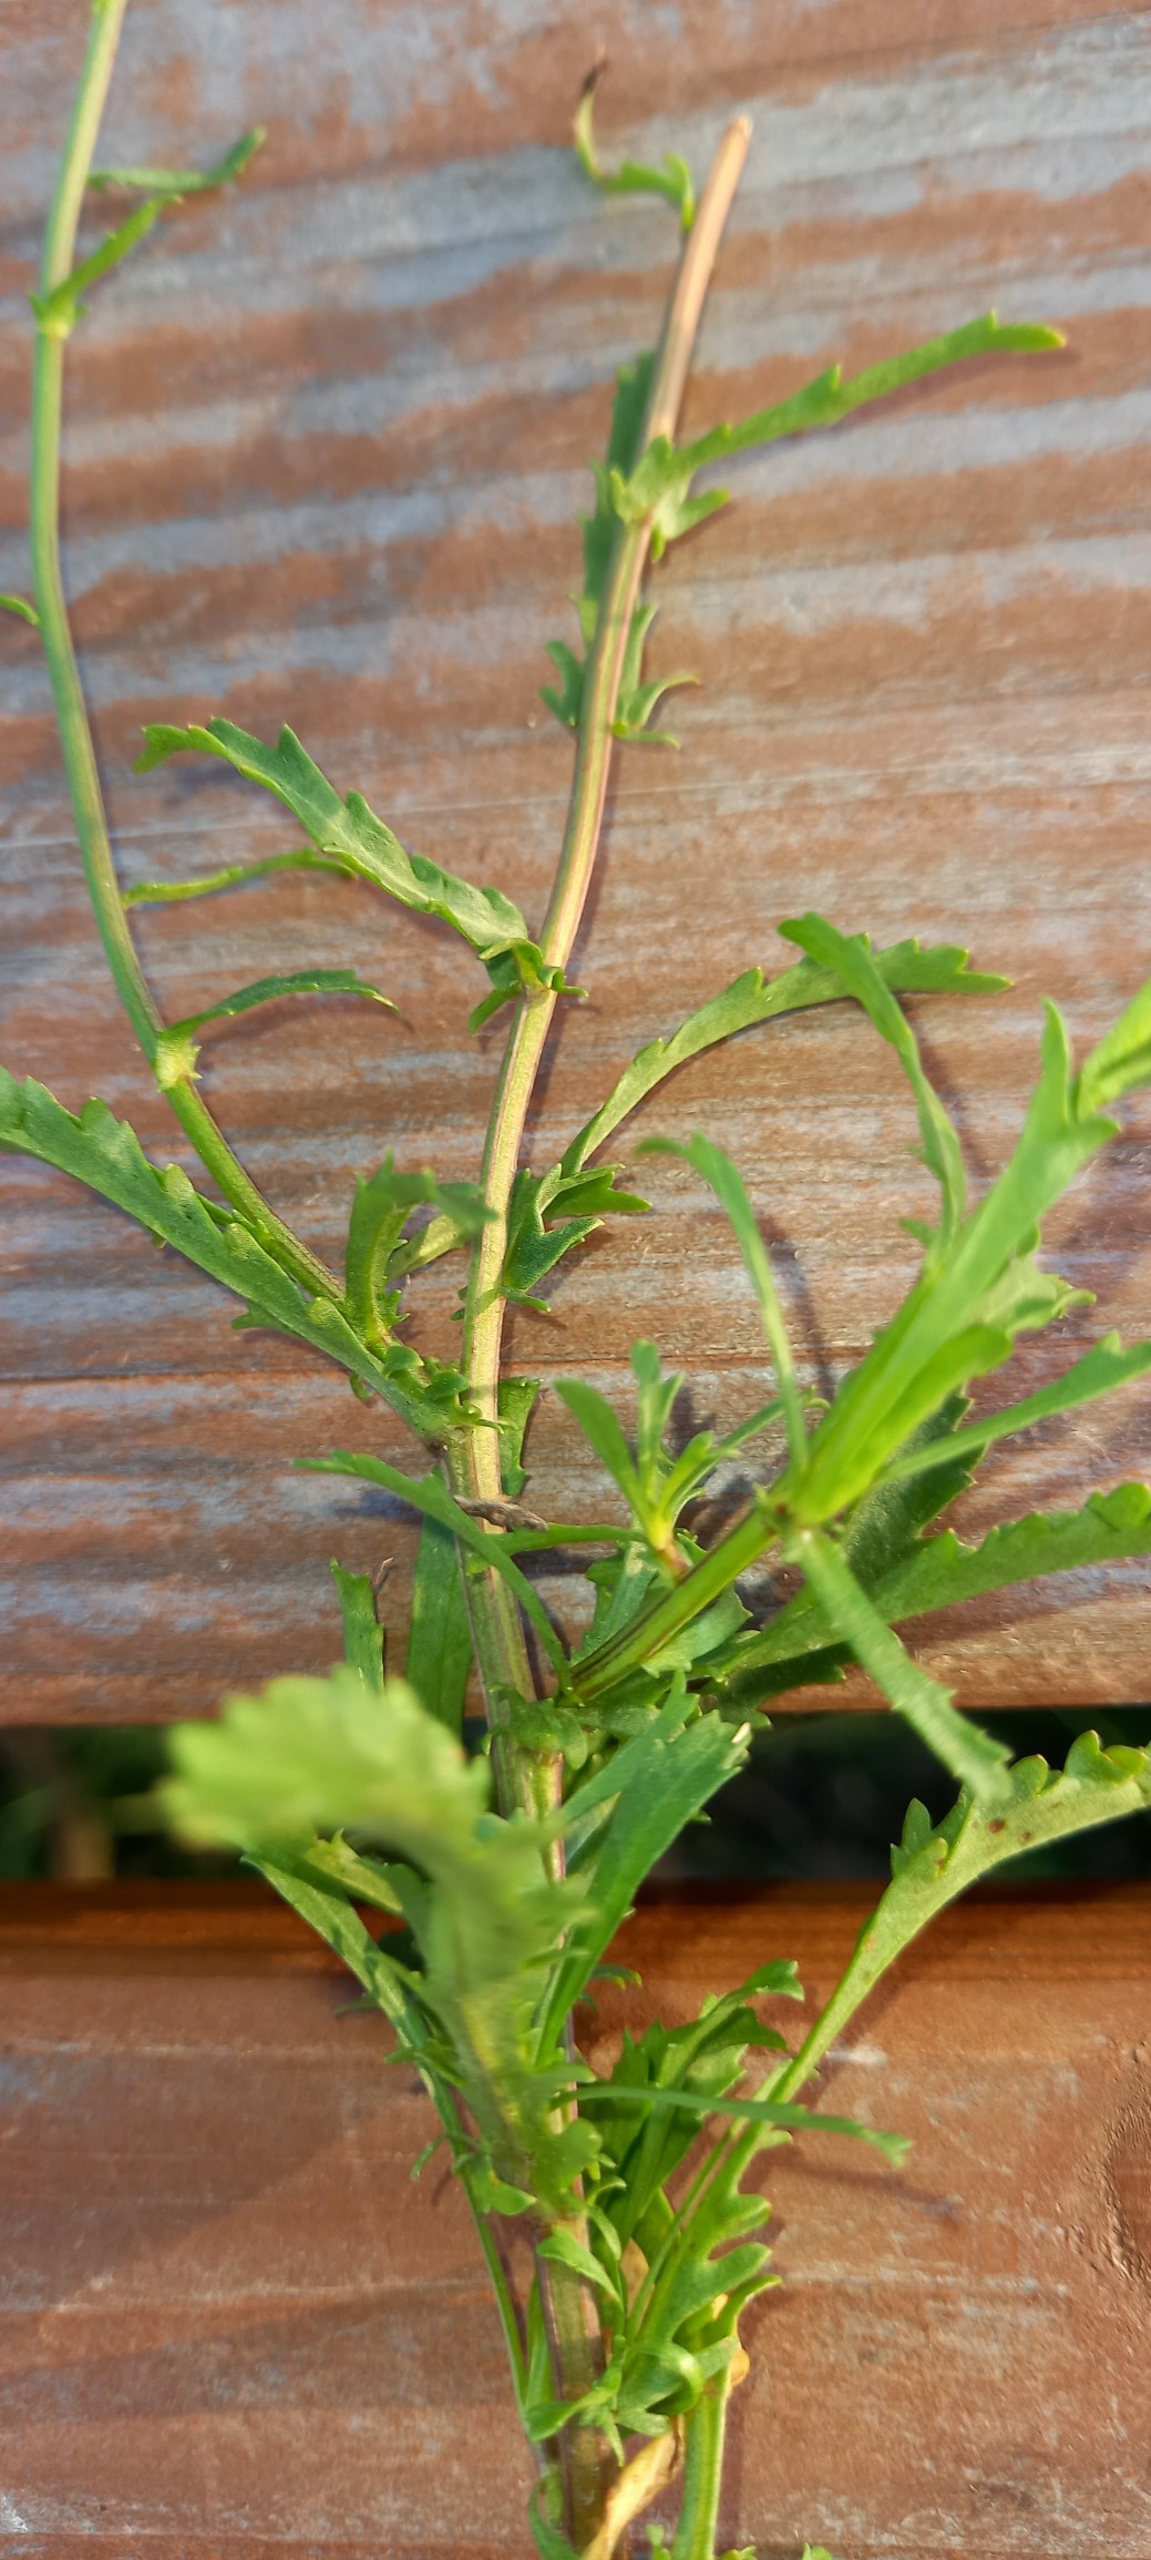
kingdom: Plantae
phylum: Tracheophyta
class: Magnoliopsida
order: Asterales
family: Asteraceae
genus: Leucanthemum
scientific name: Leucanthemum vulgare
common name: Hvid okseøje
